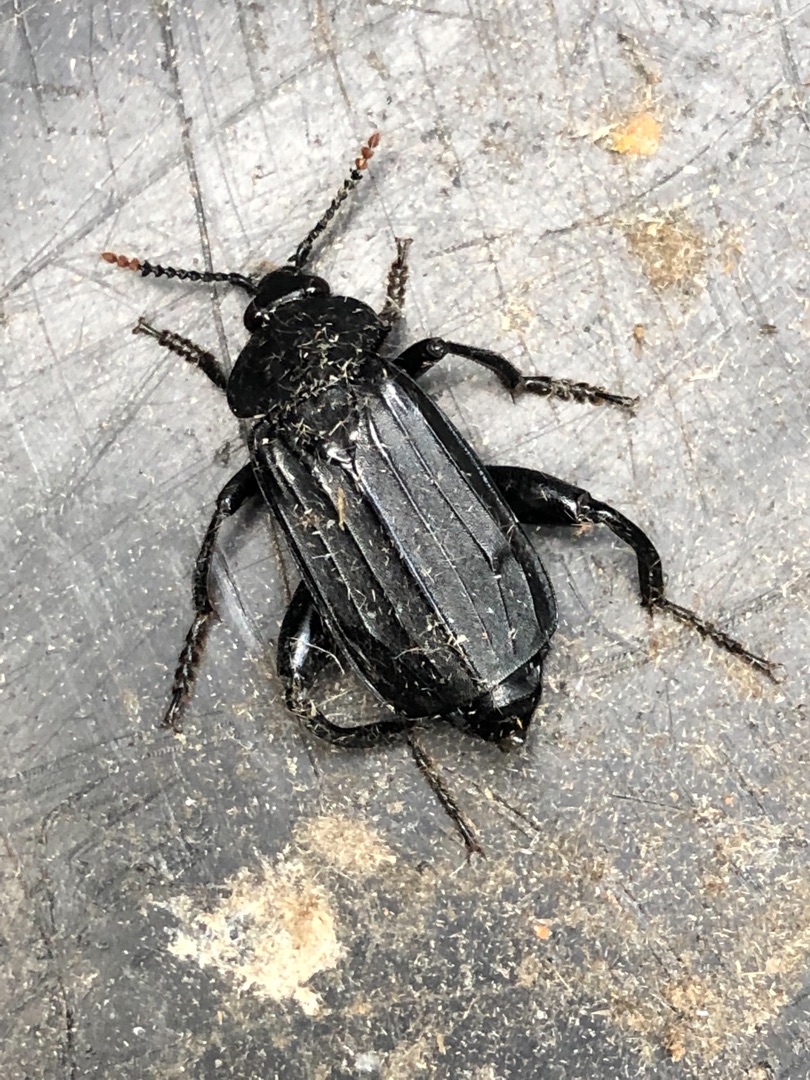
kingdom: Animalia
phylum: Arthropoda
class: Insecta
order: Coleoptera
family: Staphylinidae
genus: Necrodes
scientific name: Necrodes littoralis
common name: Ligrøver
